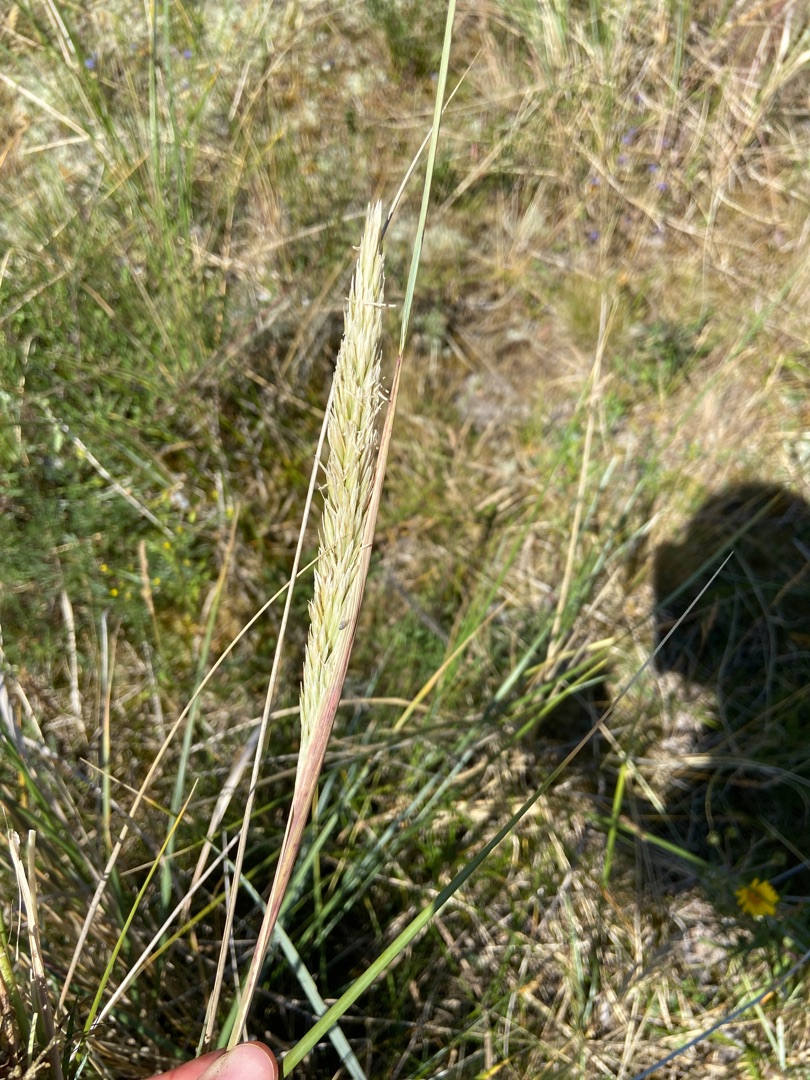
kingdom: Plantae
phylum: Tracheophyta
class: Liliopsida
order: Poales
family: Poaceae
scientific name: Poaceae
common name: Østersøhjælme
